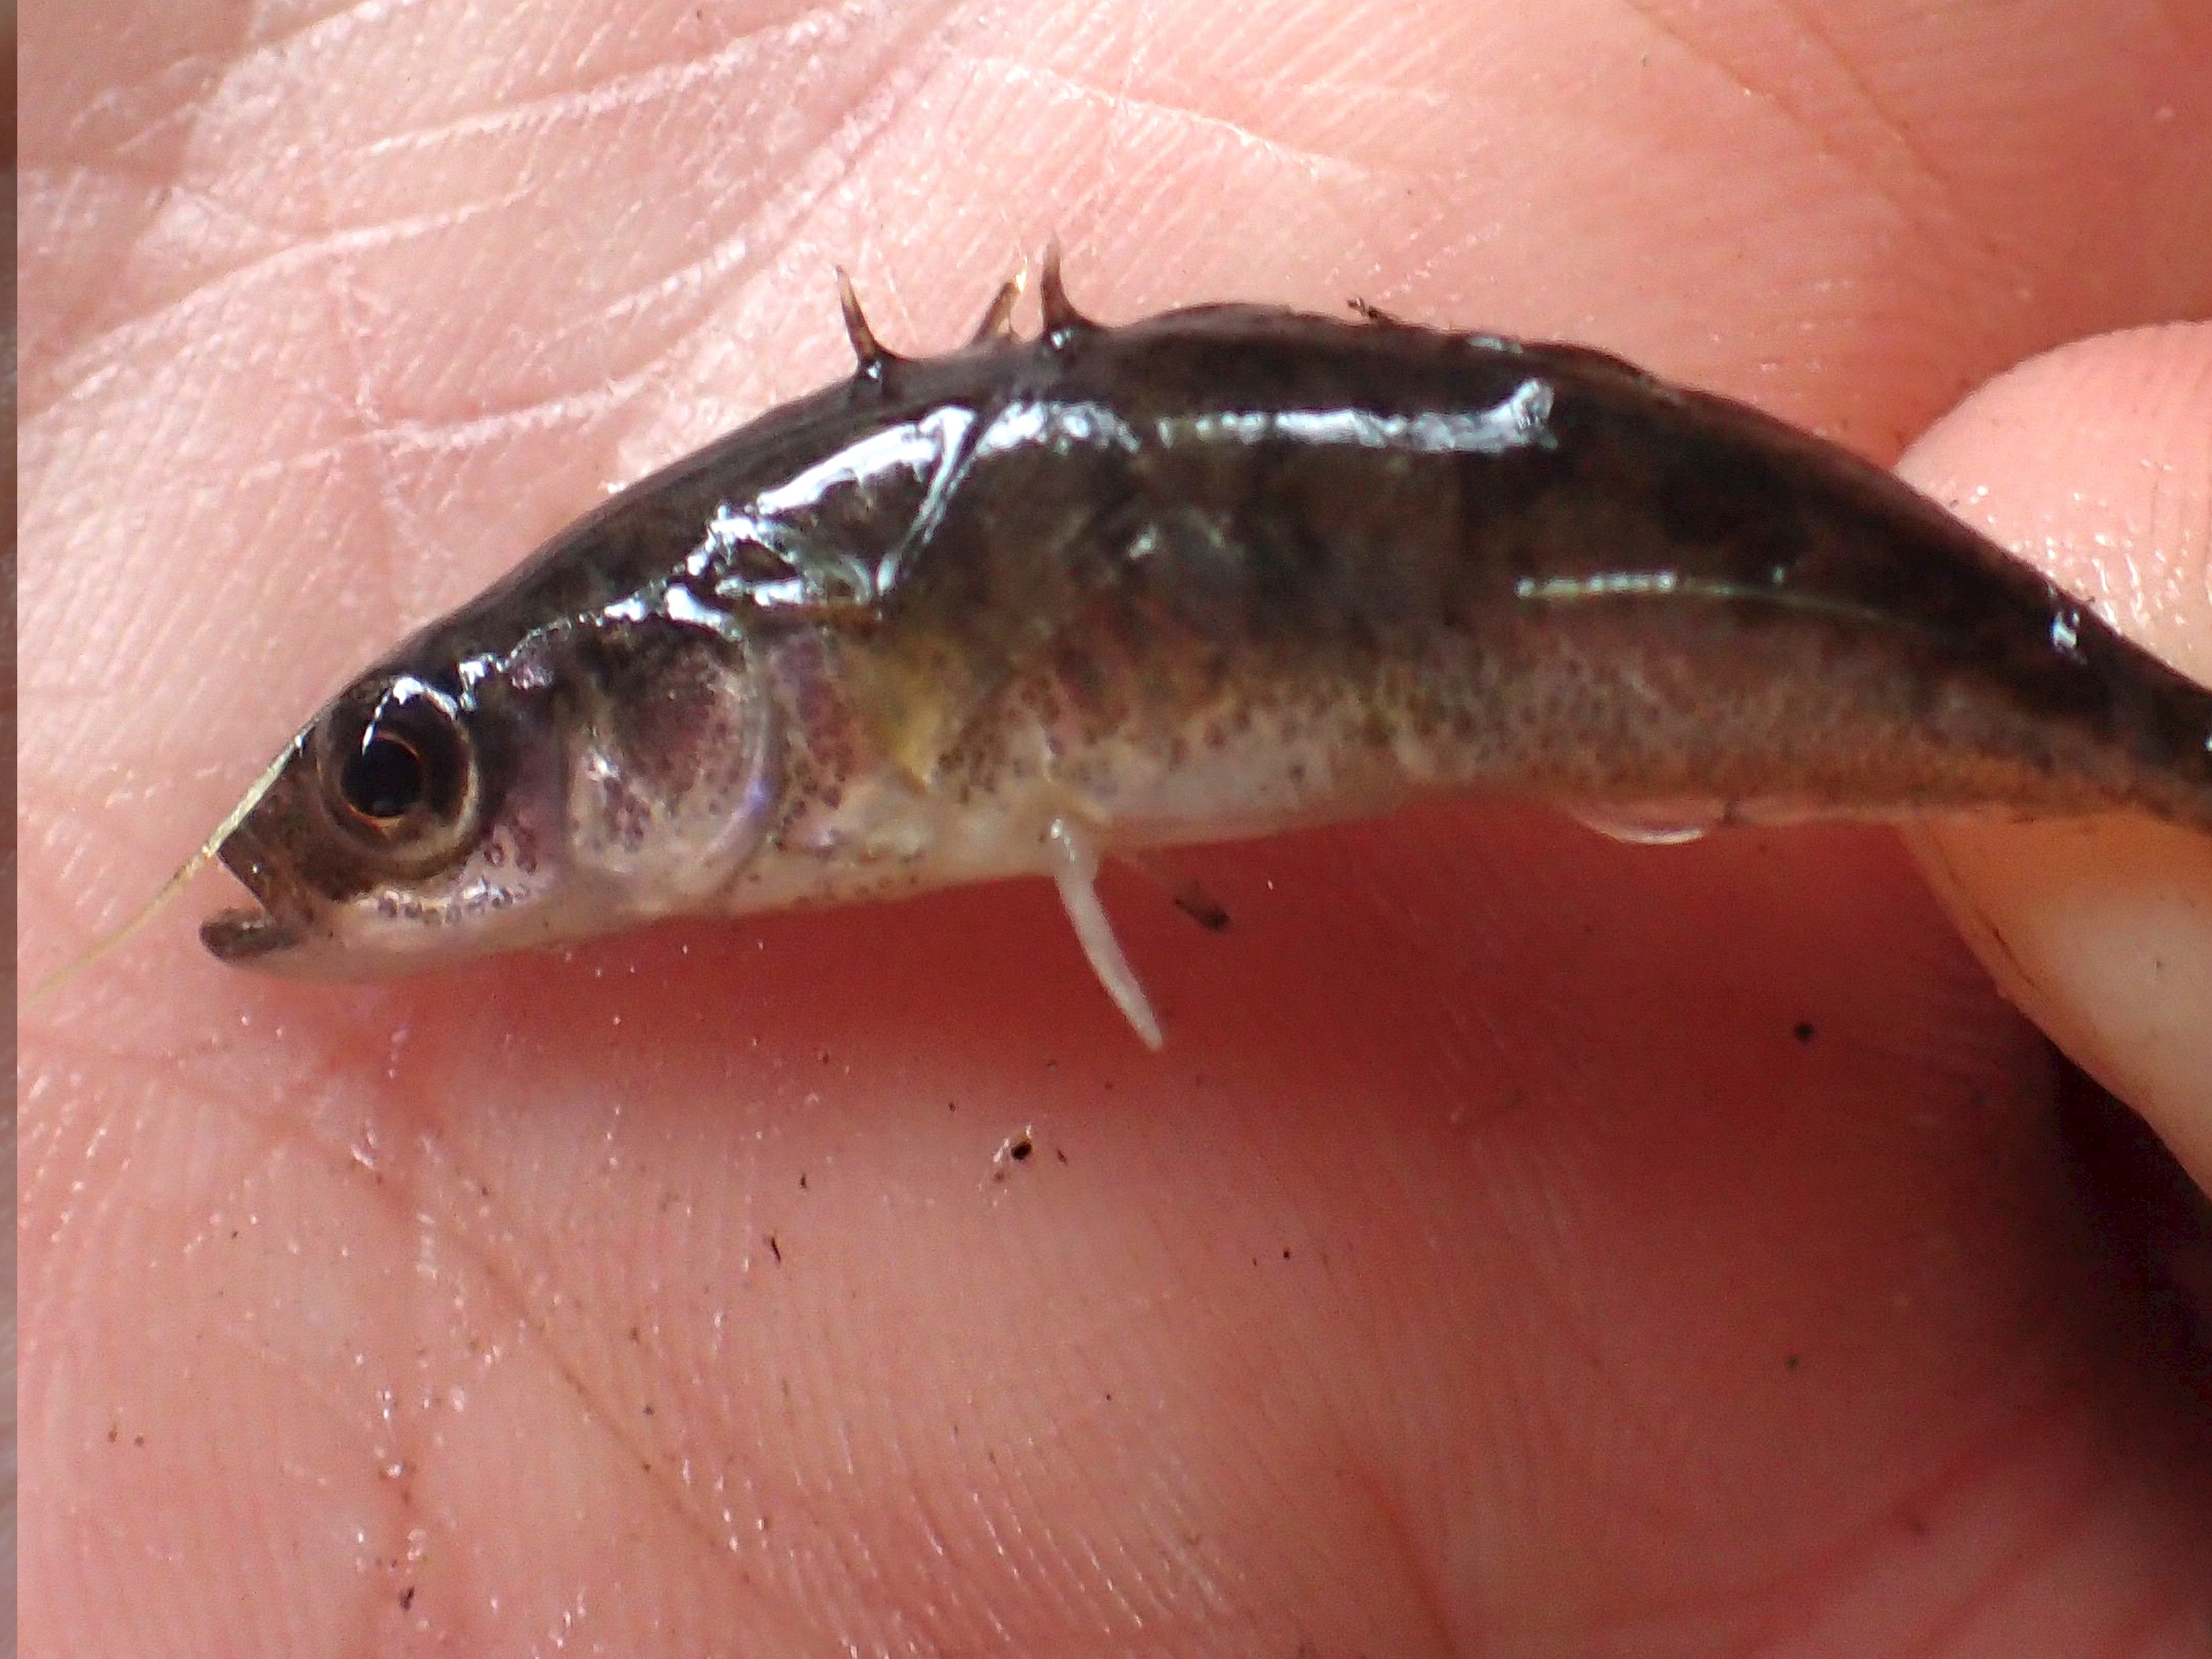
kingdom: Animalia
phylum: Chordata
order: Gasterosteiformes
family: Gasterosteidae
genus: Pungitius
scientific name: Pungitius pungitius
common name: Nipigget hundestejle
